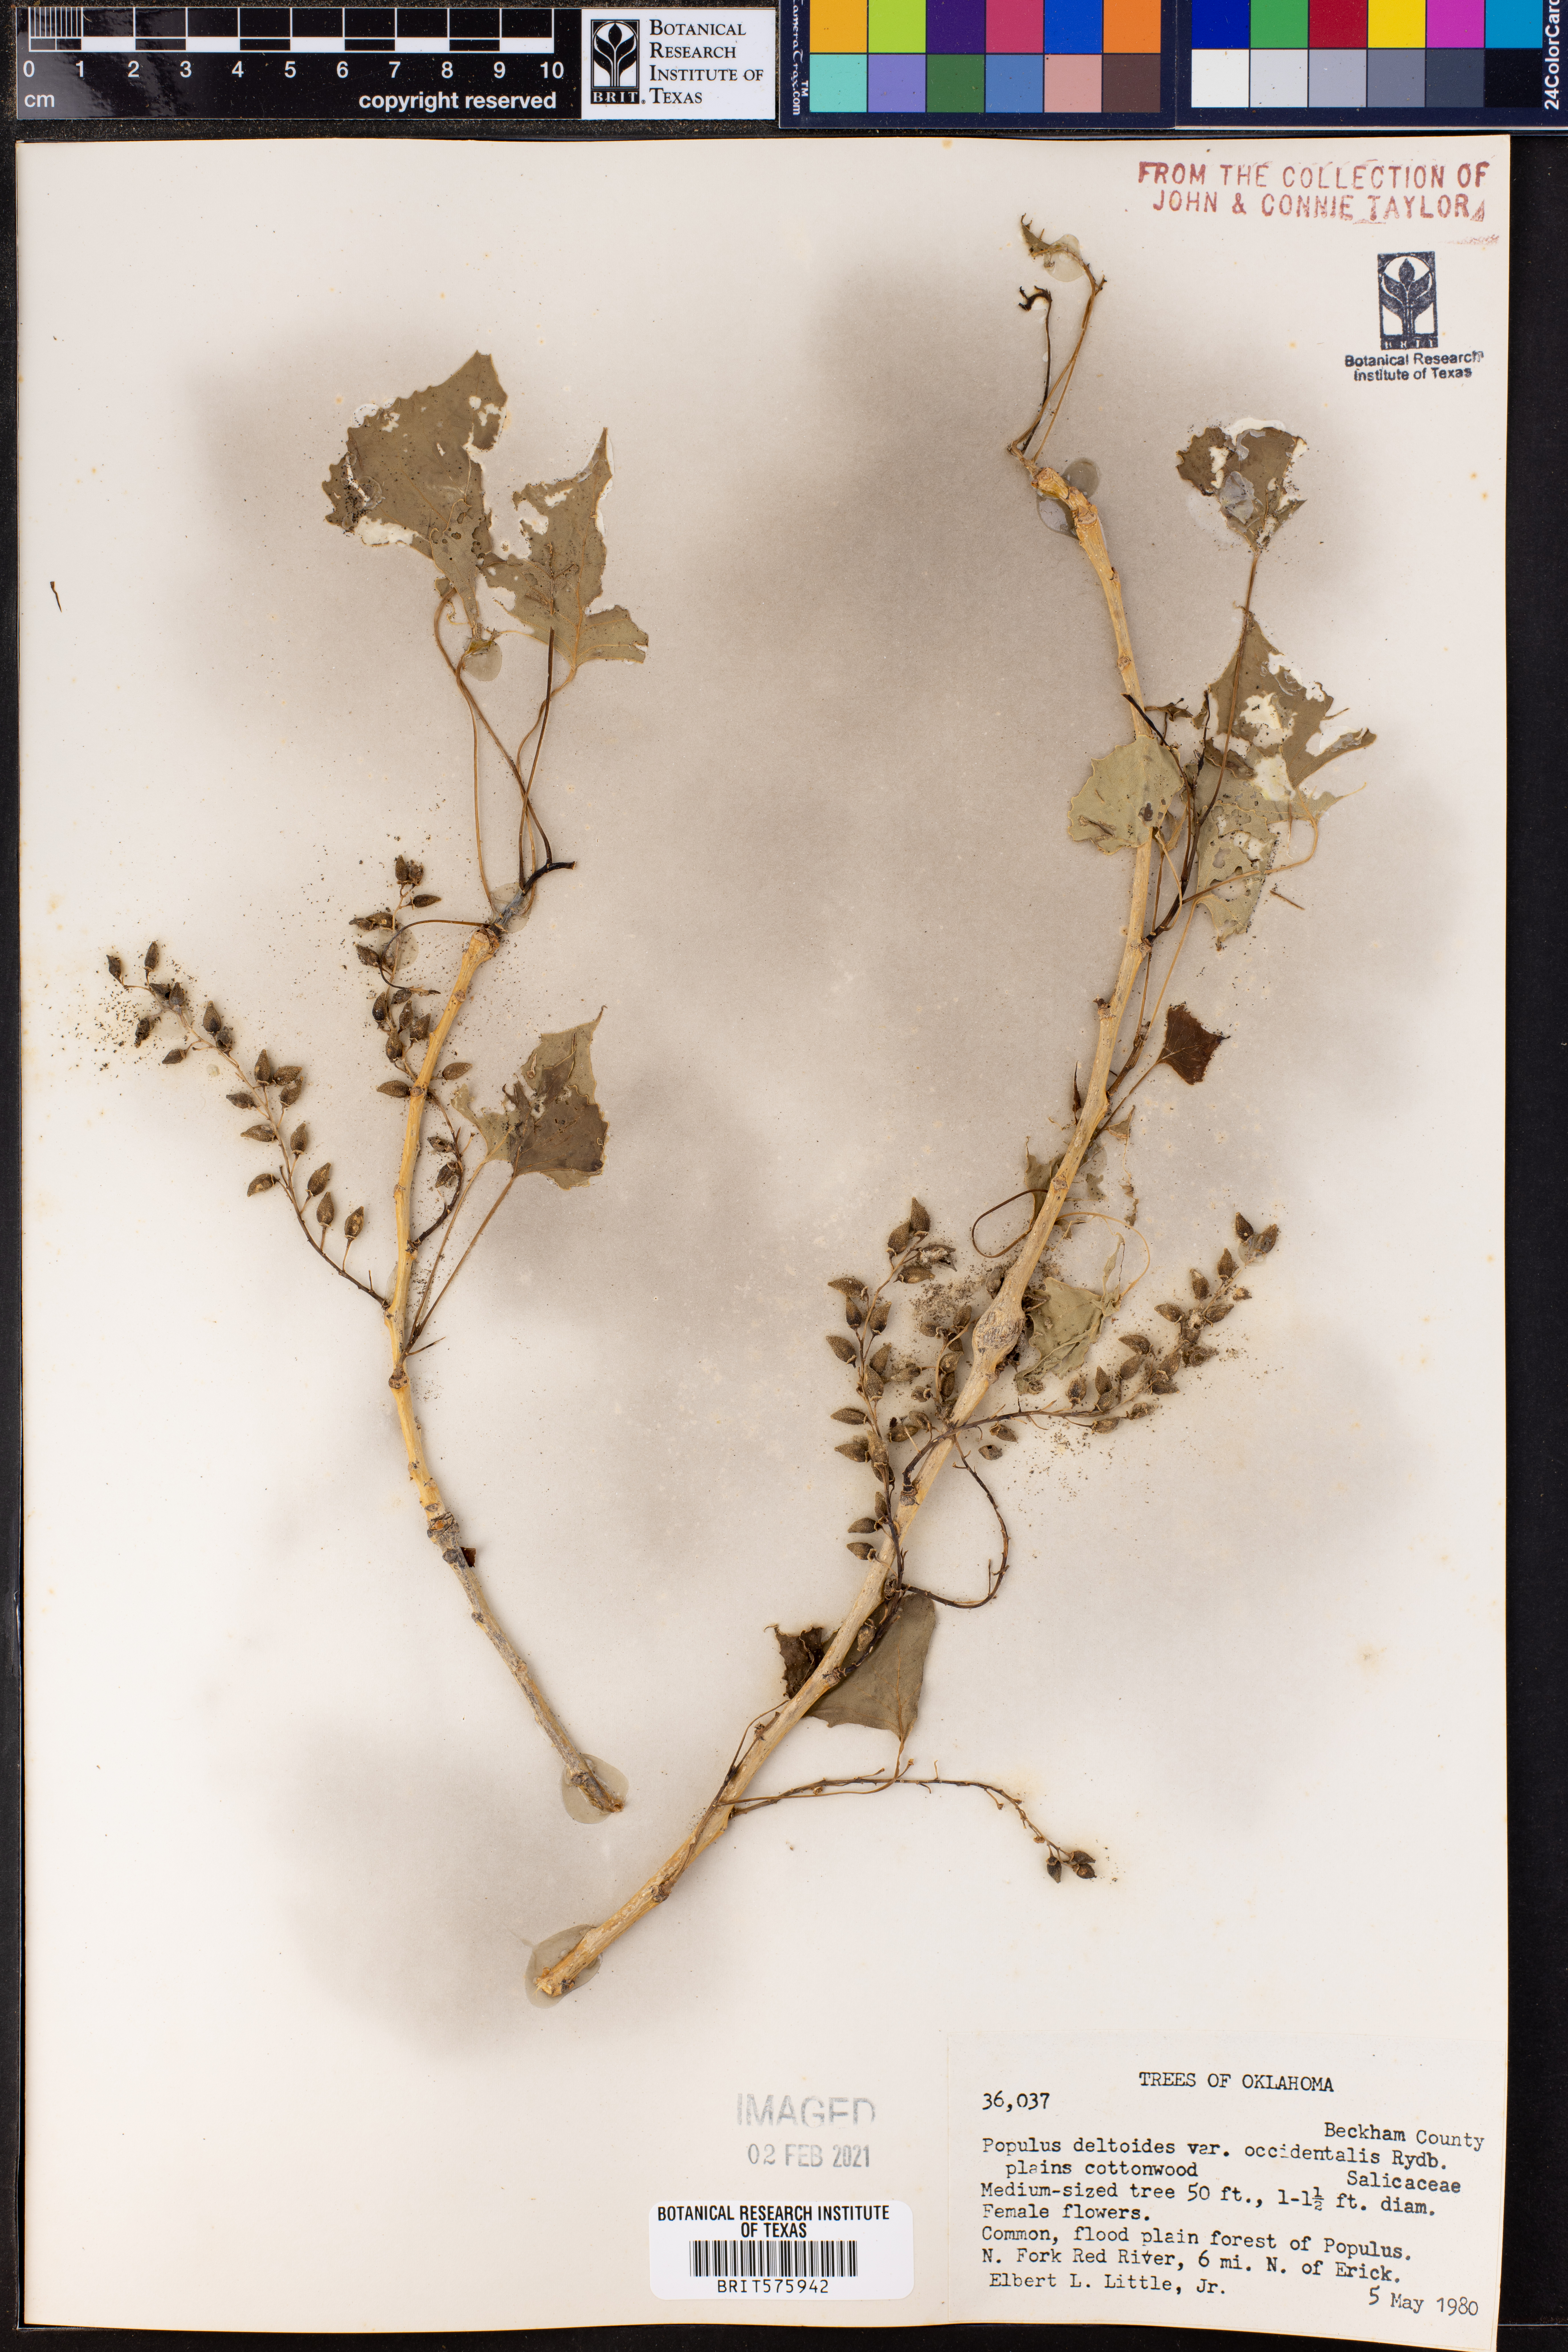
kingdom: Plantae
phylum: Tracheophyta
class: Magnoliopsida
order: Malpighiales
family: Salicaceae
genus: Populus
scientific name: Populus deltoides
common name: Eastern cottonwood
